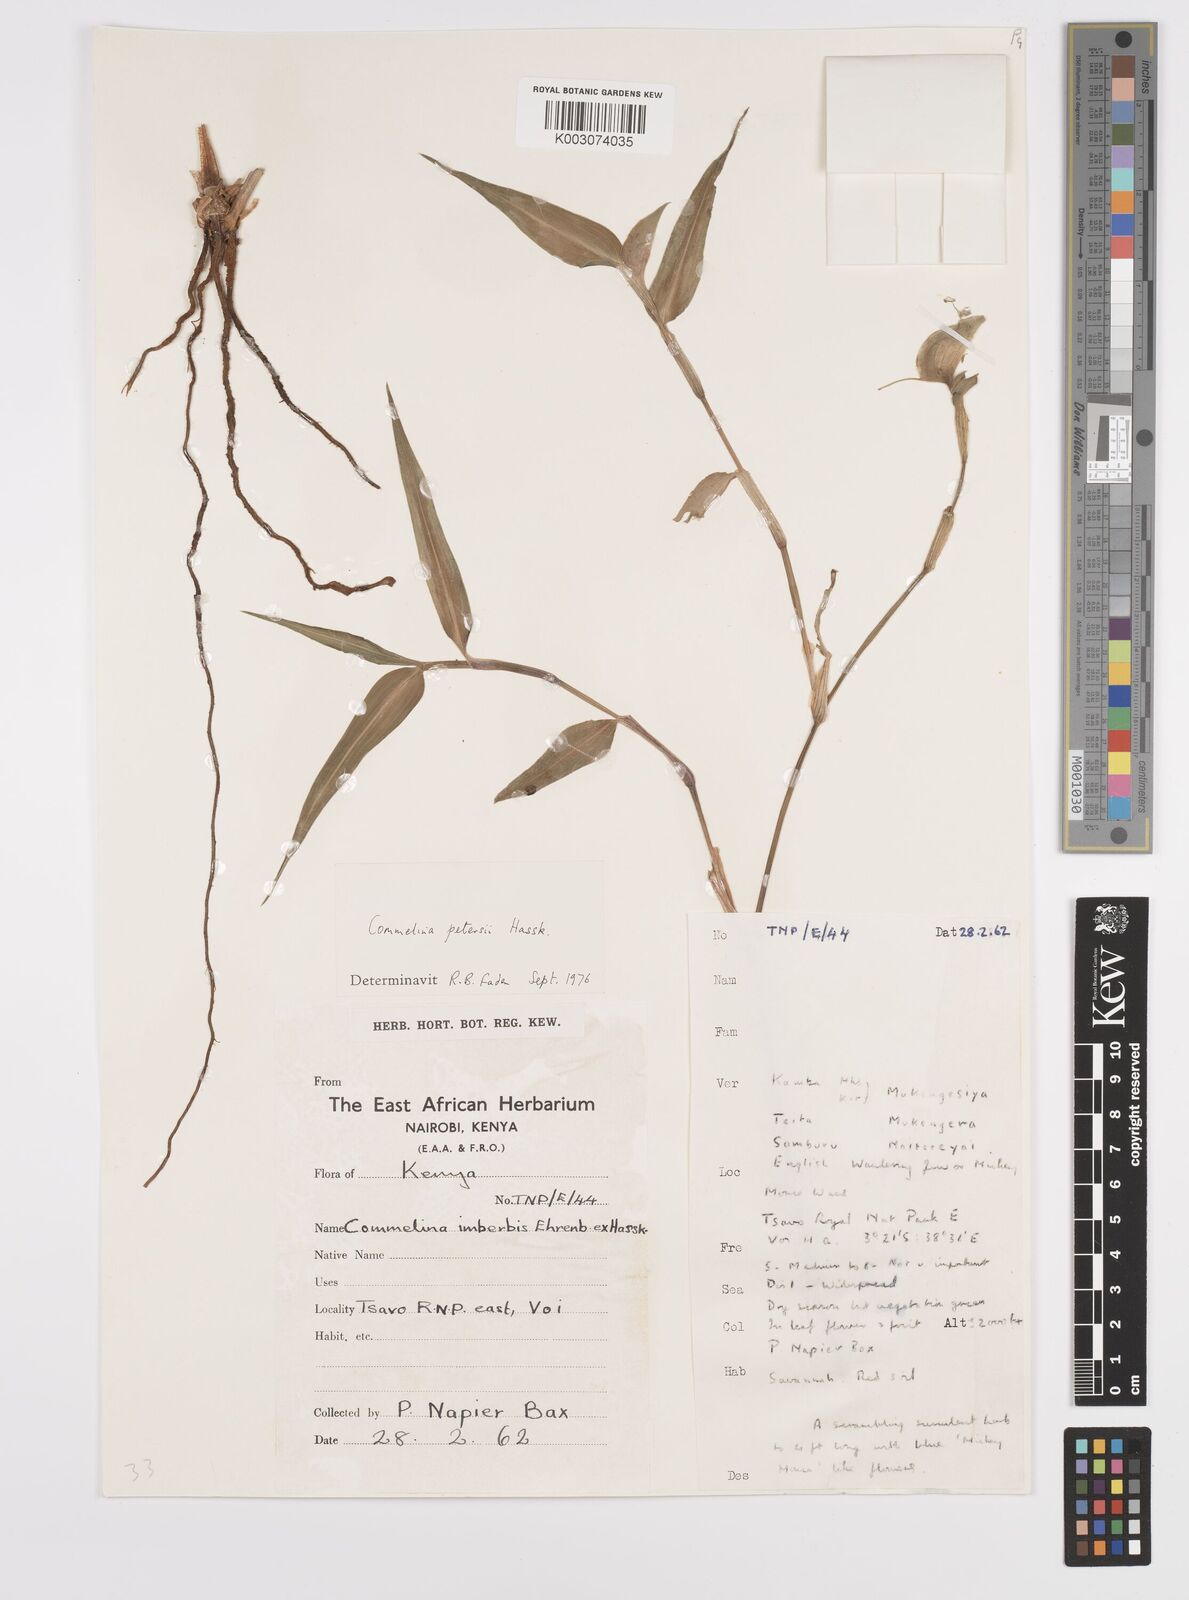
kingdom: Plantae
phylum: Tracheophyta
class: Liliopsida
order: Commelinales
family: Commelinaceae
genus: Commelina
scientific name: Commelina petersii
